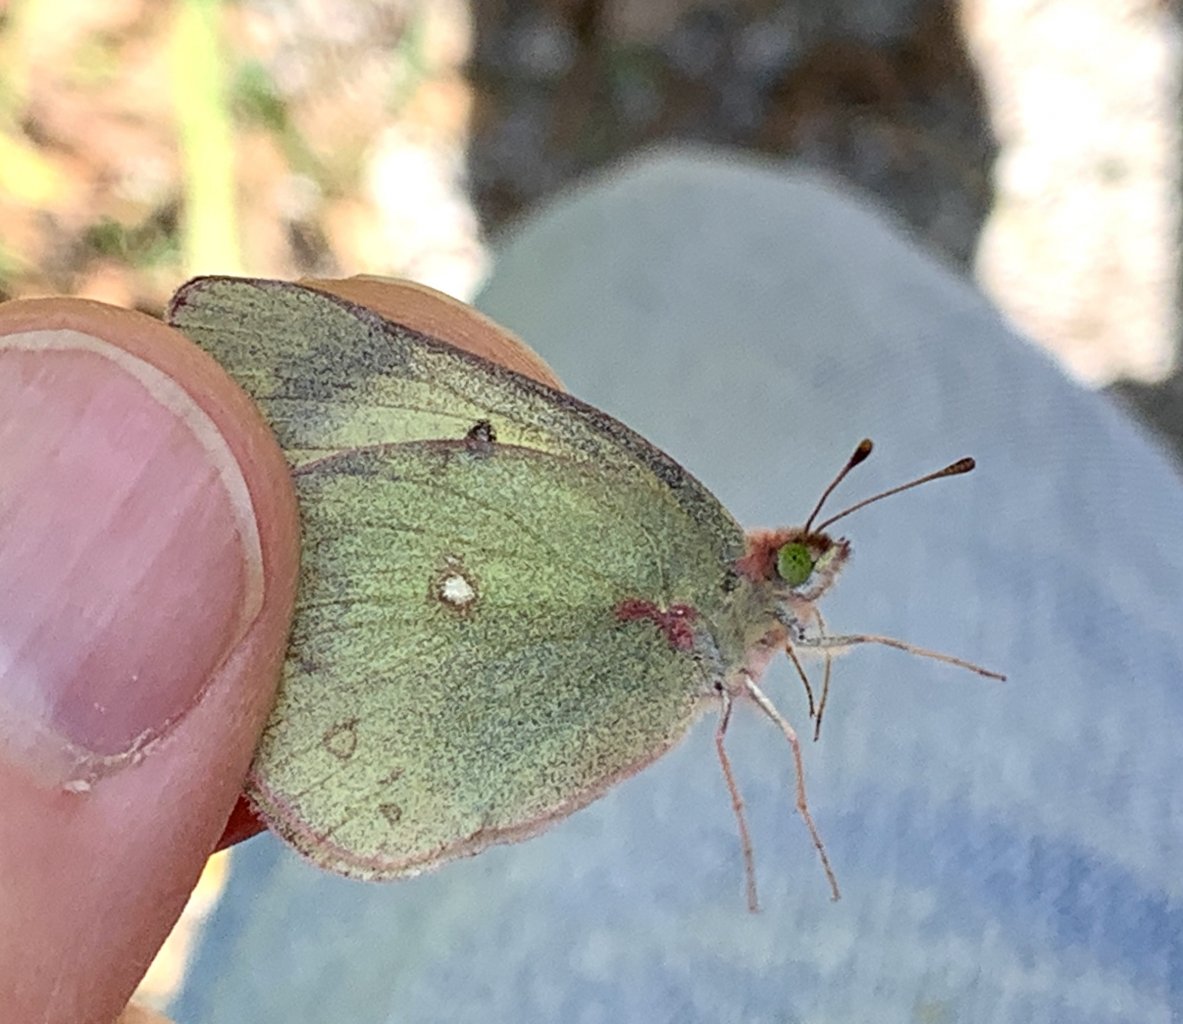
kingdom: Animalia
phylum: Arthropoda
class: Insecta
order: Lepidoptera
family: Pieridae
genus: Colias
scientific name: Colias philodice
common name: Clouded Sulphur
